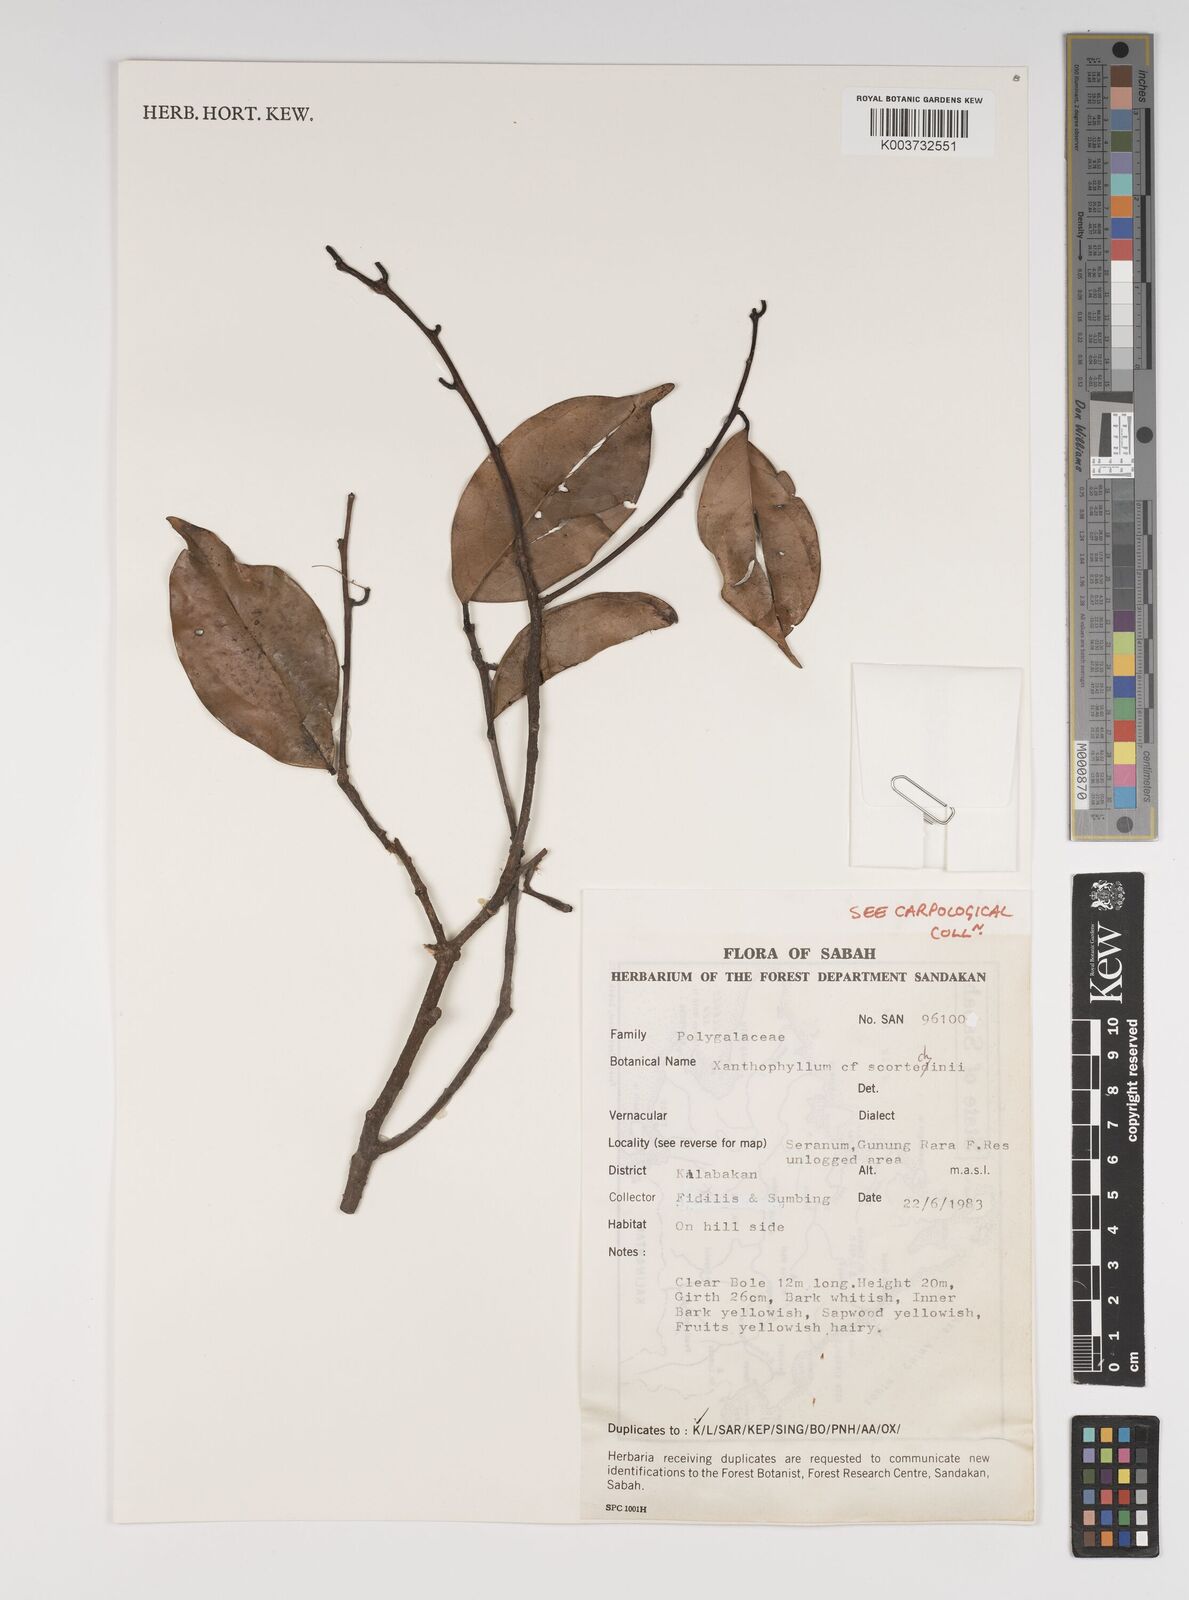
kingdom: Plantae
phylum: Tracheophyta
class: Magnoliopsida
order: Fabales
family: Polygalaceae
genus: Xanthophyllum
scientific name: Xanthophyllum obscurum
